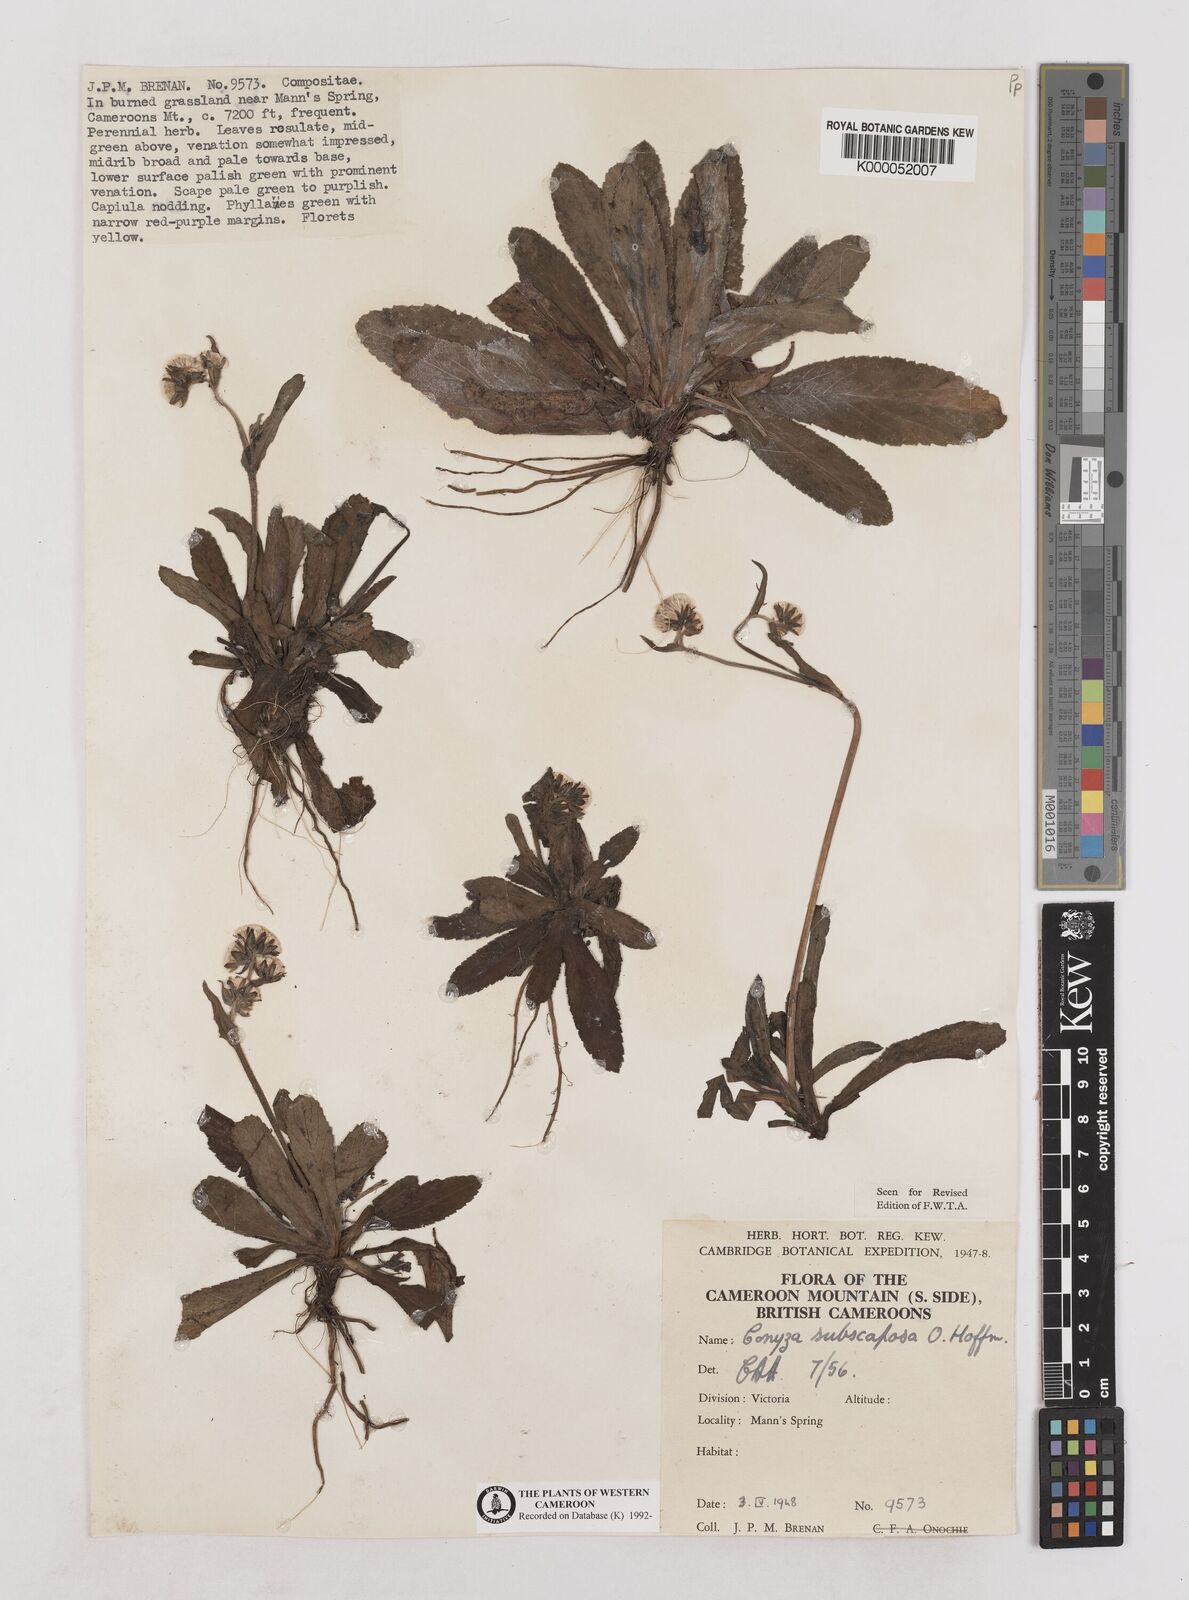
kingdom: Plantae
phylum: Tracheophyta
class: Magnoliopsida
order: Asterales
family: Asteraceae
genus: Eschenbachia
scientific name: Eschenbachia subscaposa
